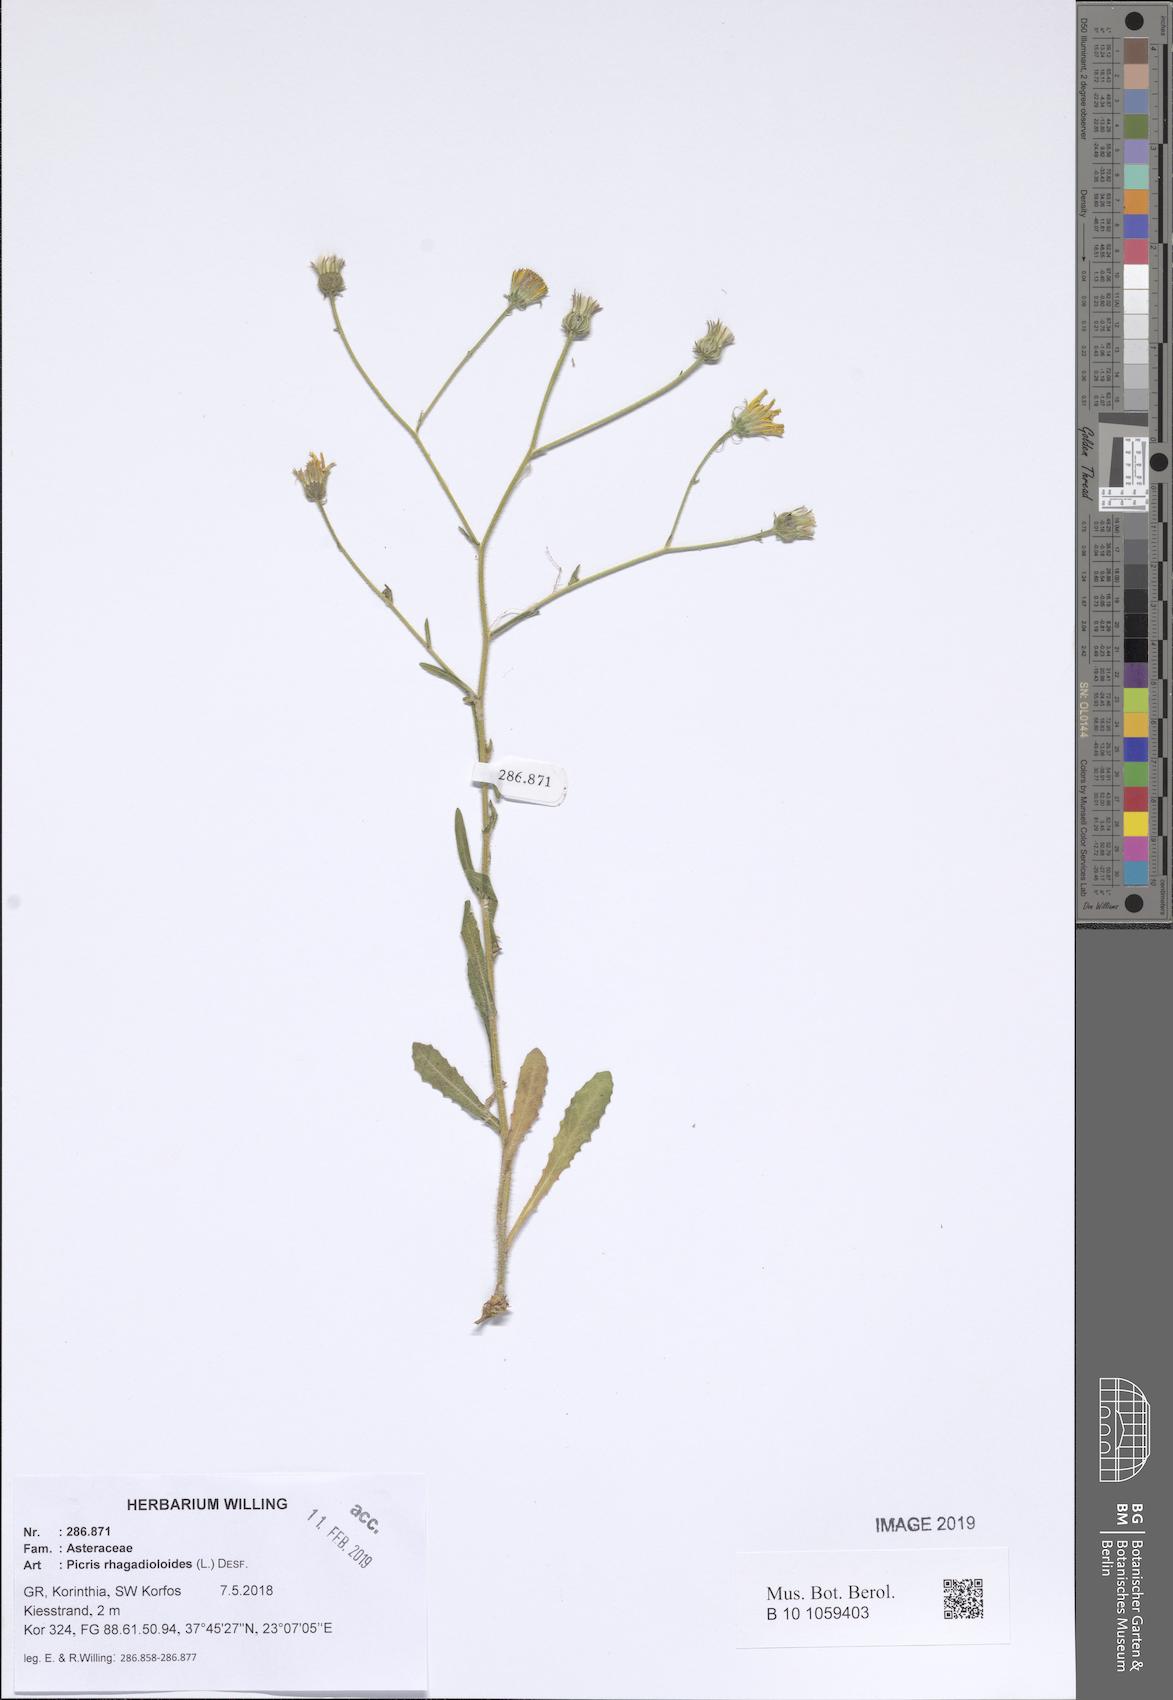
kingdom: Plantae
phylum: Tracheophyta
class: Magnoliopsida
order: Asterales
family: Asteraceae
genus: Picris
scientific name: Picris rhagadioloides
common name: Oxtongue
